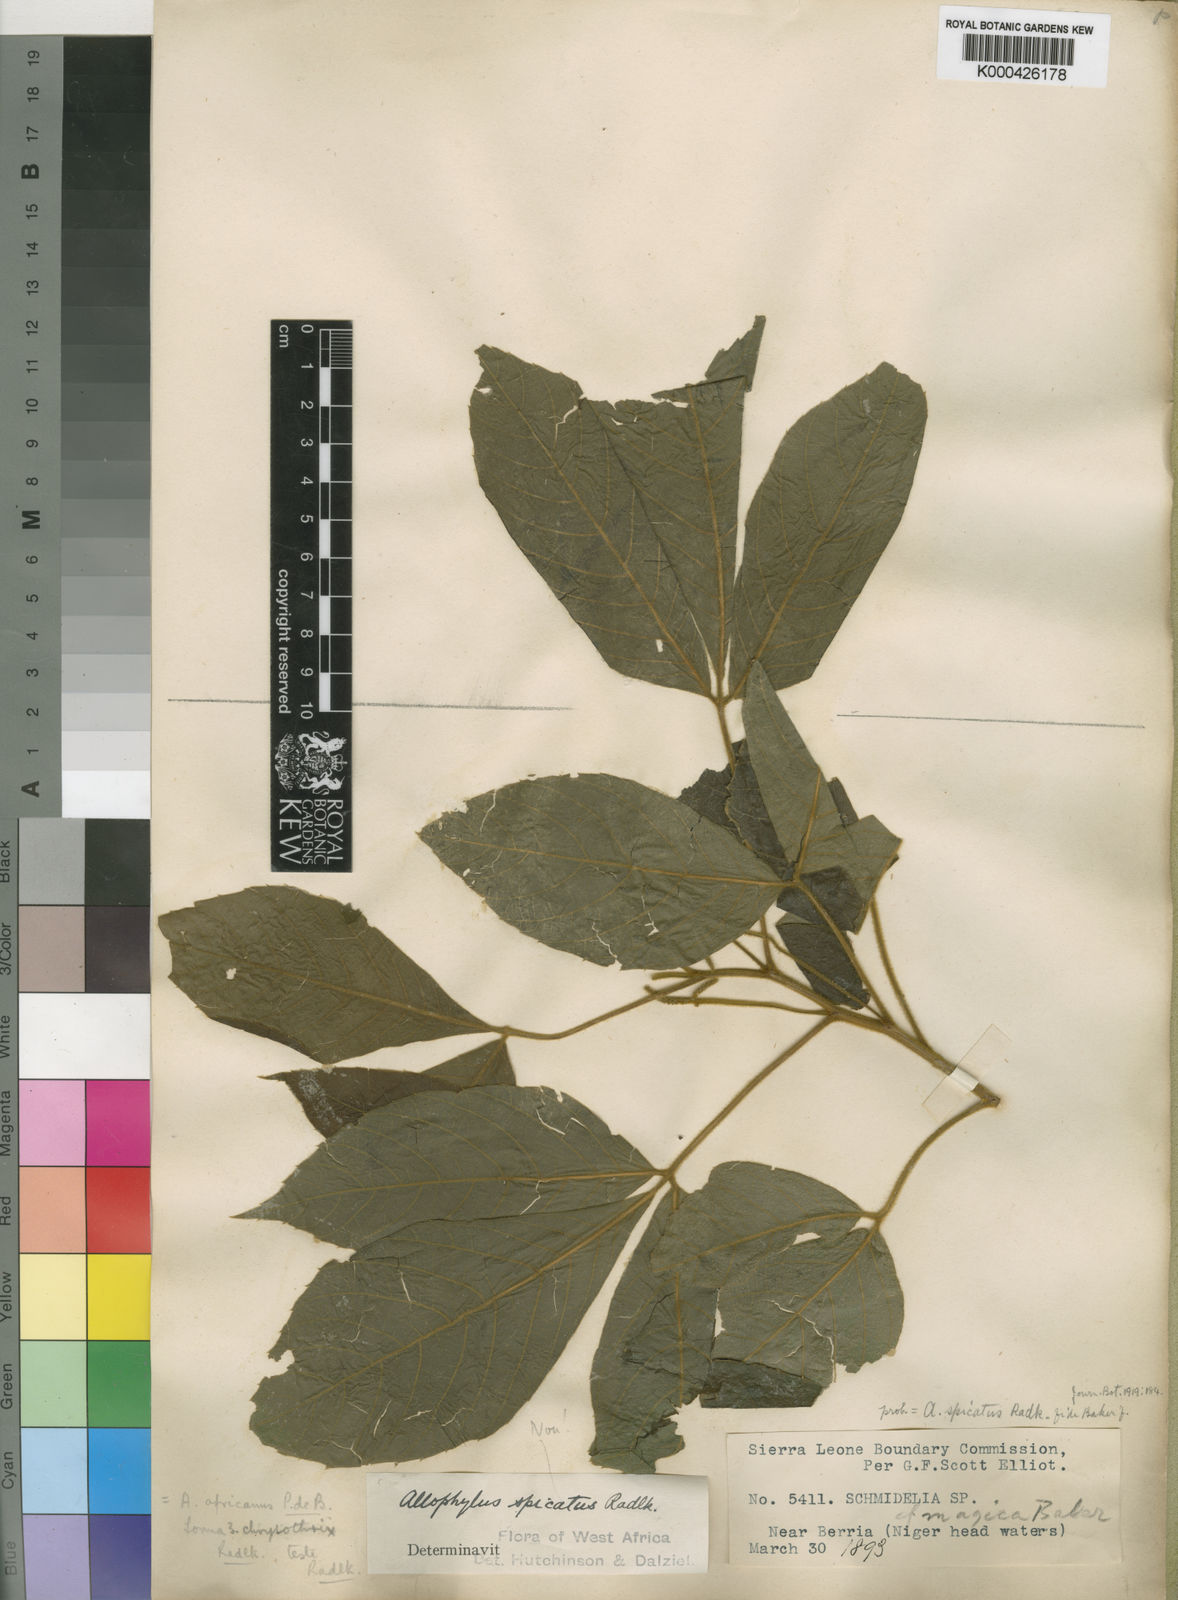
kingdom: Plantae
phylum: Tracheophyta
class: Magnoliopsida
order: Sapindales
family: Sapindaceae
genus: Allophylus
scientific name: Allophylus africanus
